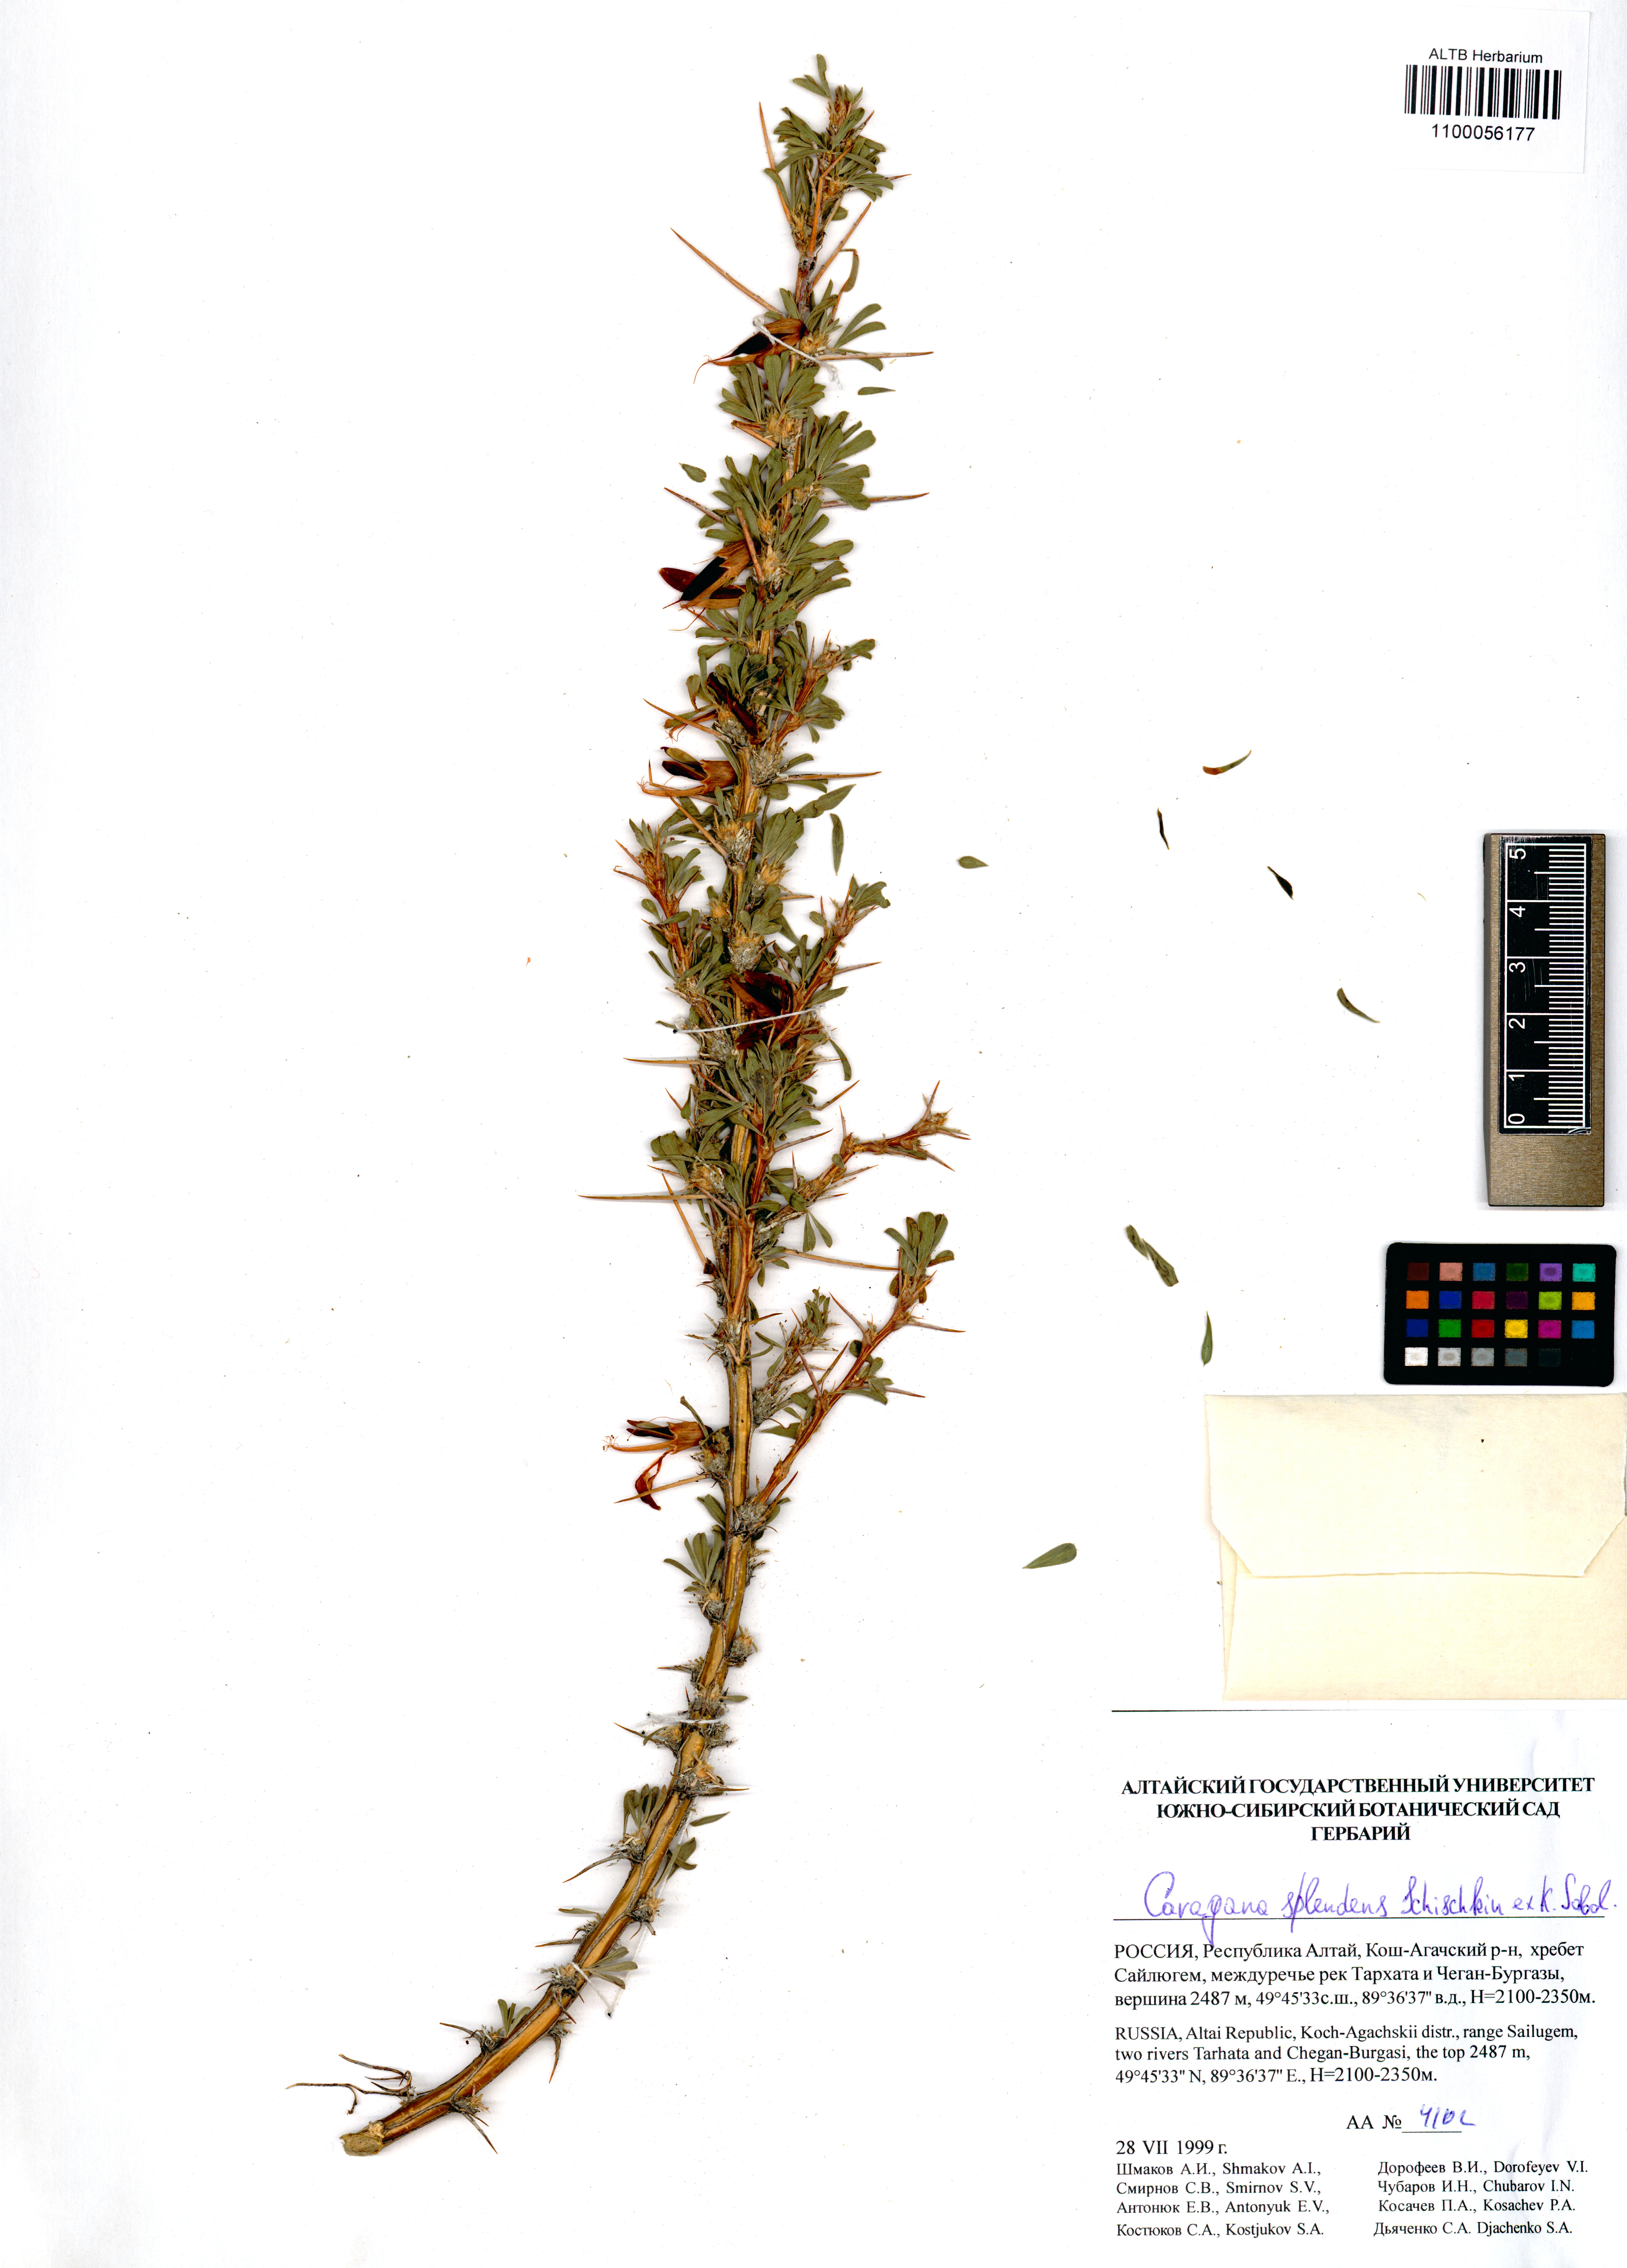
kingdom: Plantae
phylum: Tracheophyta
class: Magnoliopsida
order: Fabales
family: Fabaceae
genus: Caragana
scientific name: Caragana pygmaea
